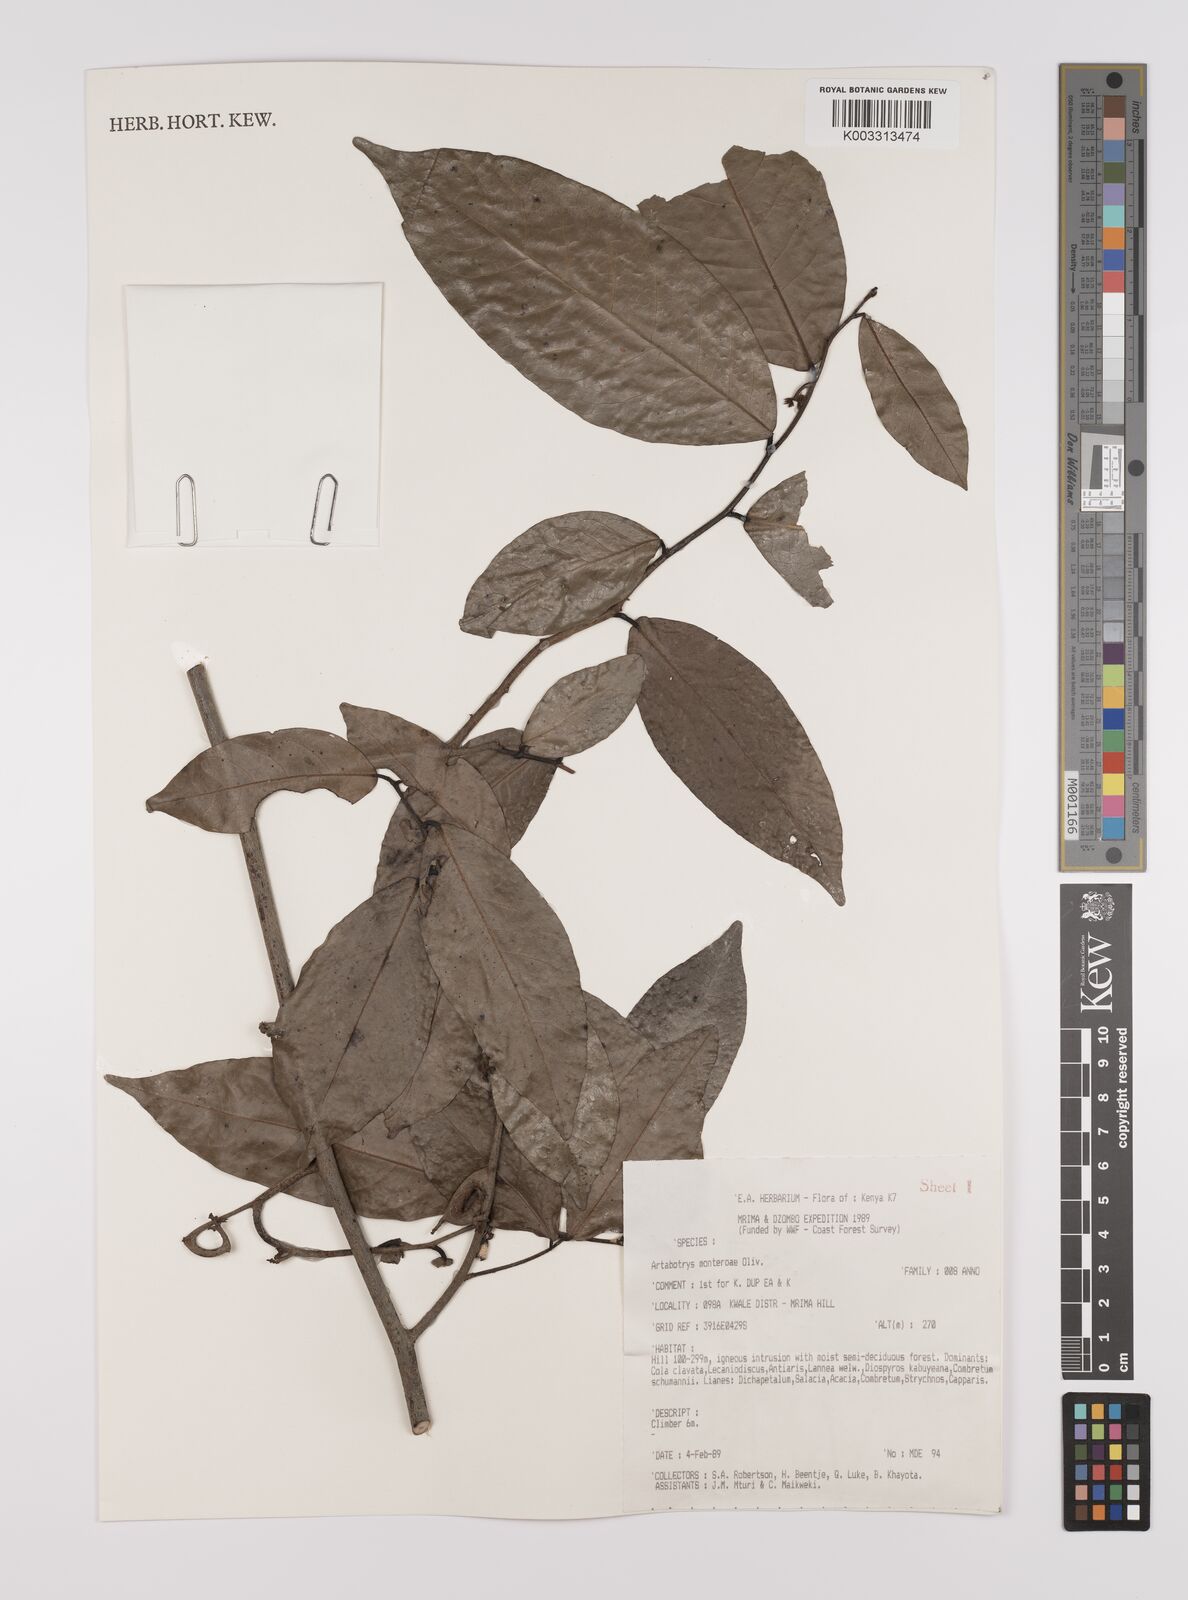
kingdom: Plantae
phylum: Tracheophyta
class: Magnoliopsida
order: Magnoliales
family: Annonaceae
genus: Artabotrys
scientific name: Artabotrys monteiroae
